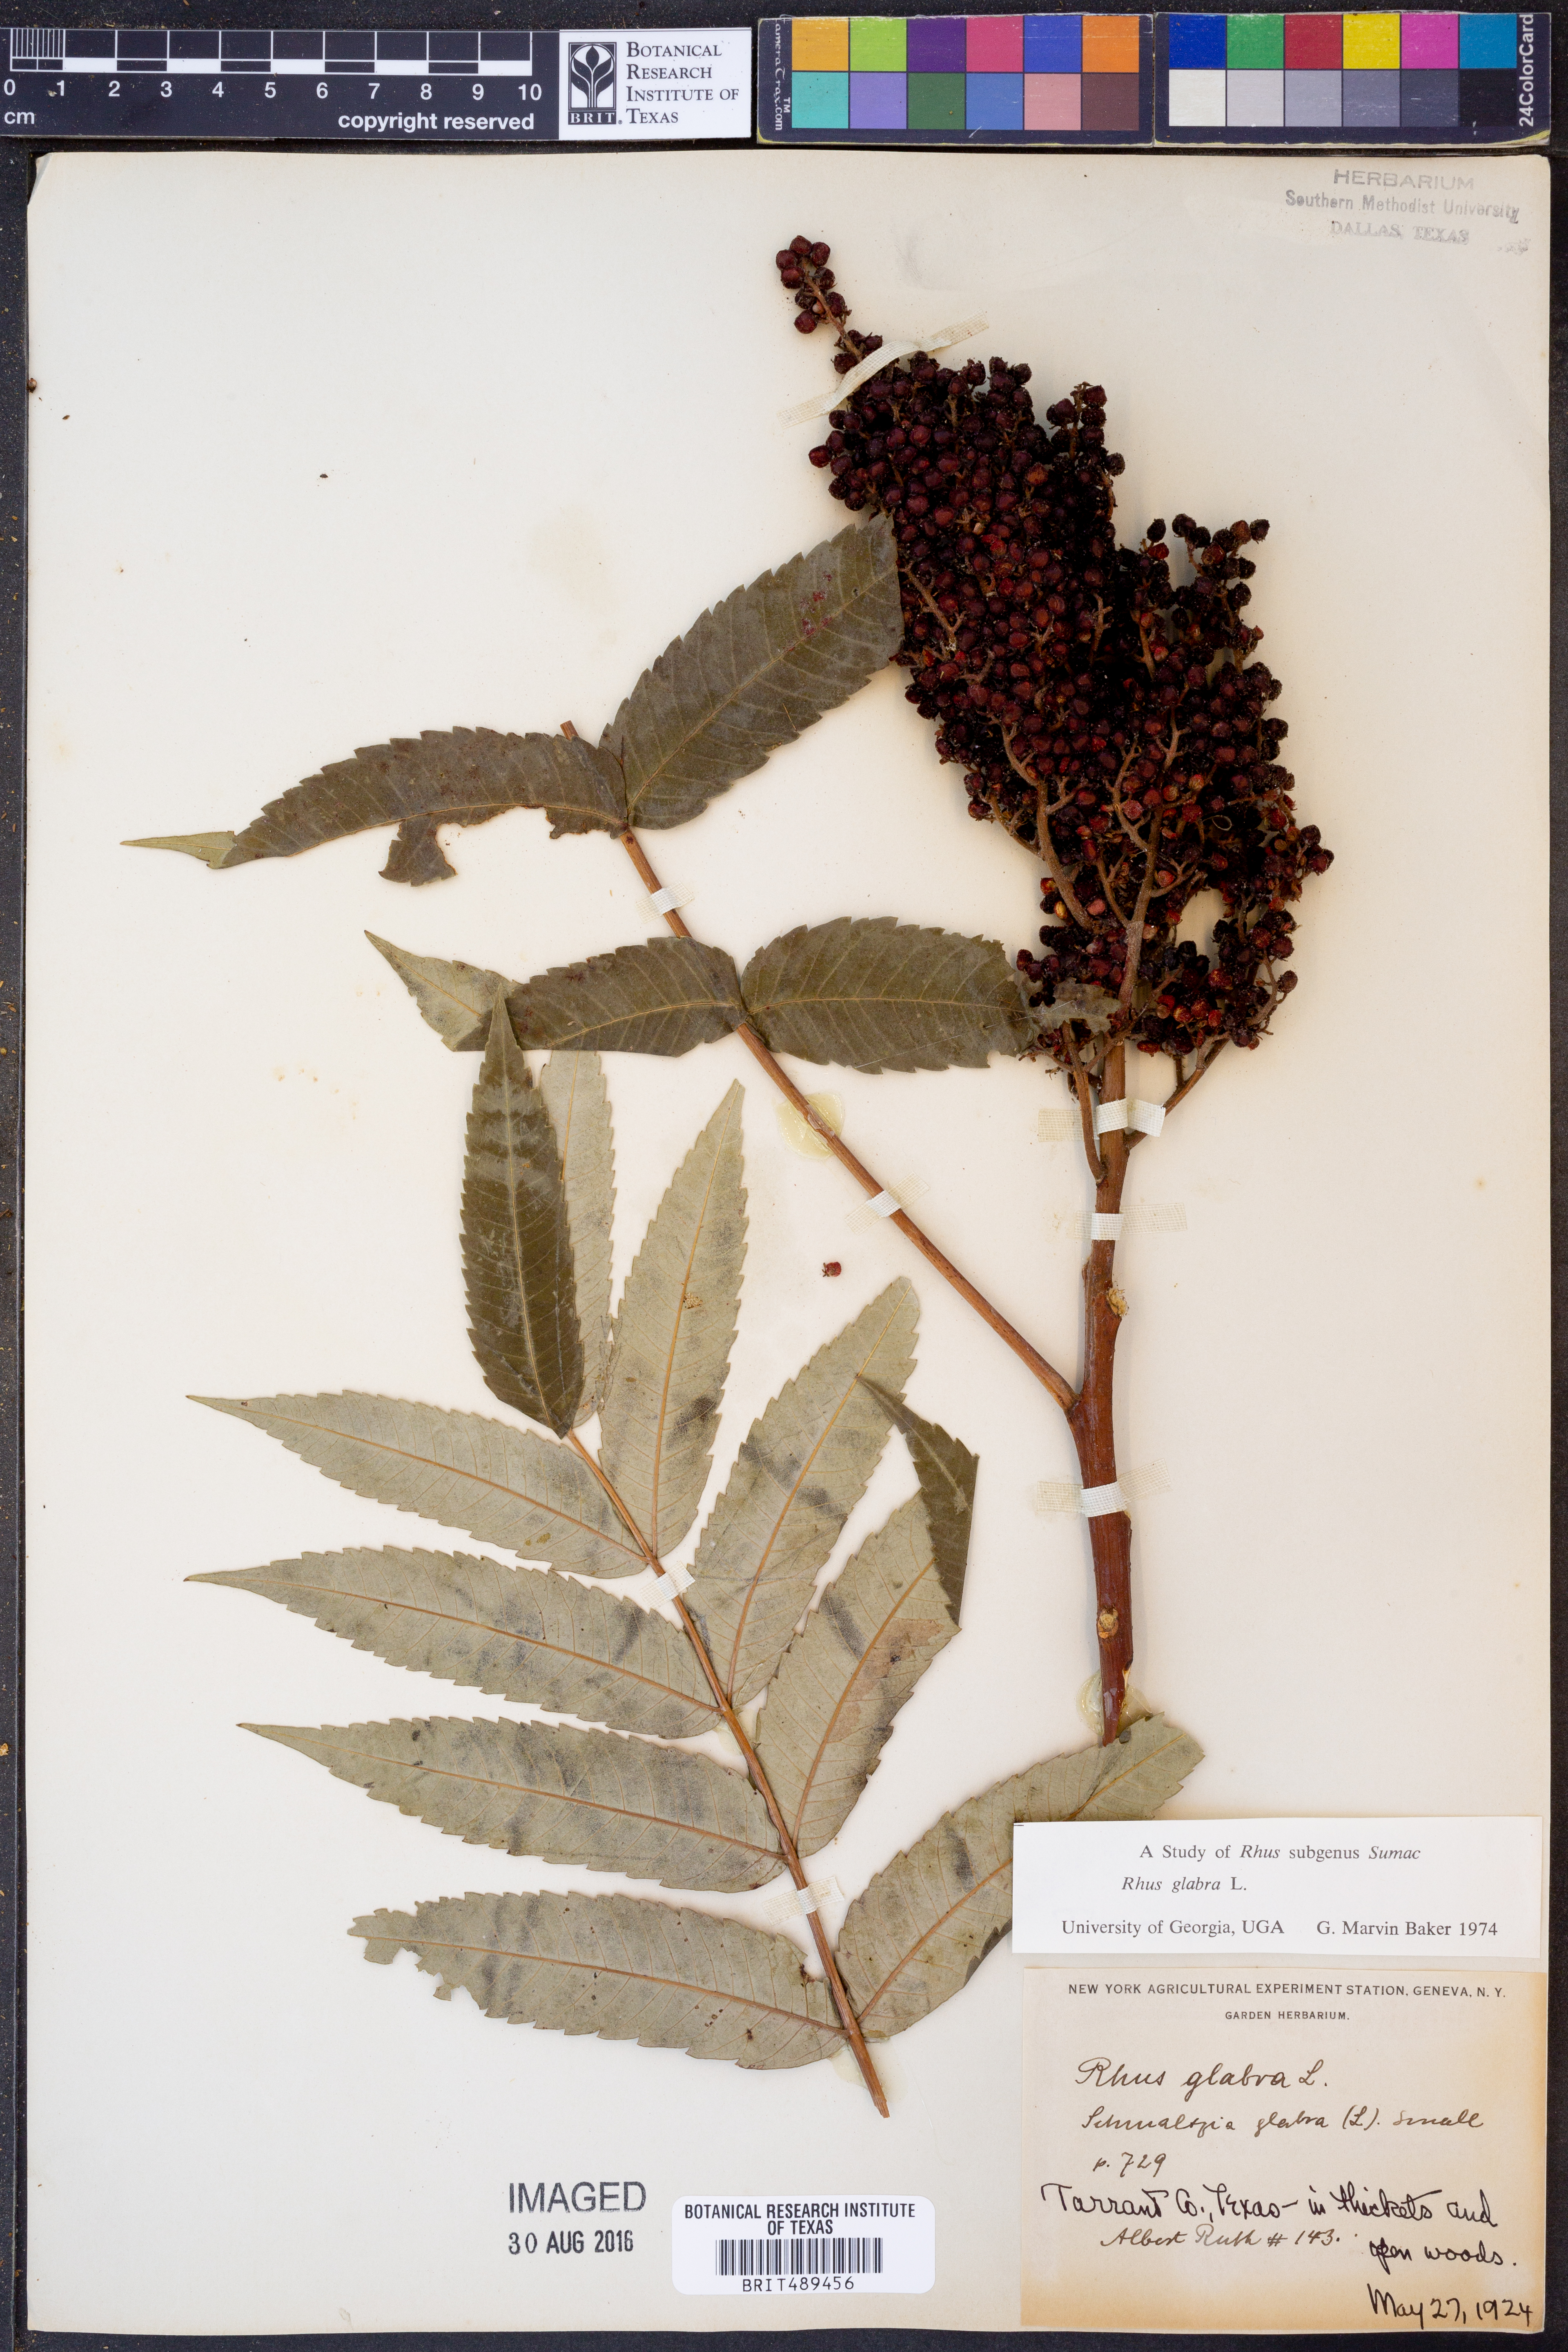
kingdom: Plantae
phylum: Tracheophyta
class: Magnoliopsida
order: Sapindales
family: Anacardiaceae
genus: Rhus
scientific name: Rhus glabra
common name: Scarlet sumac
